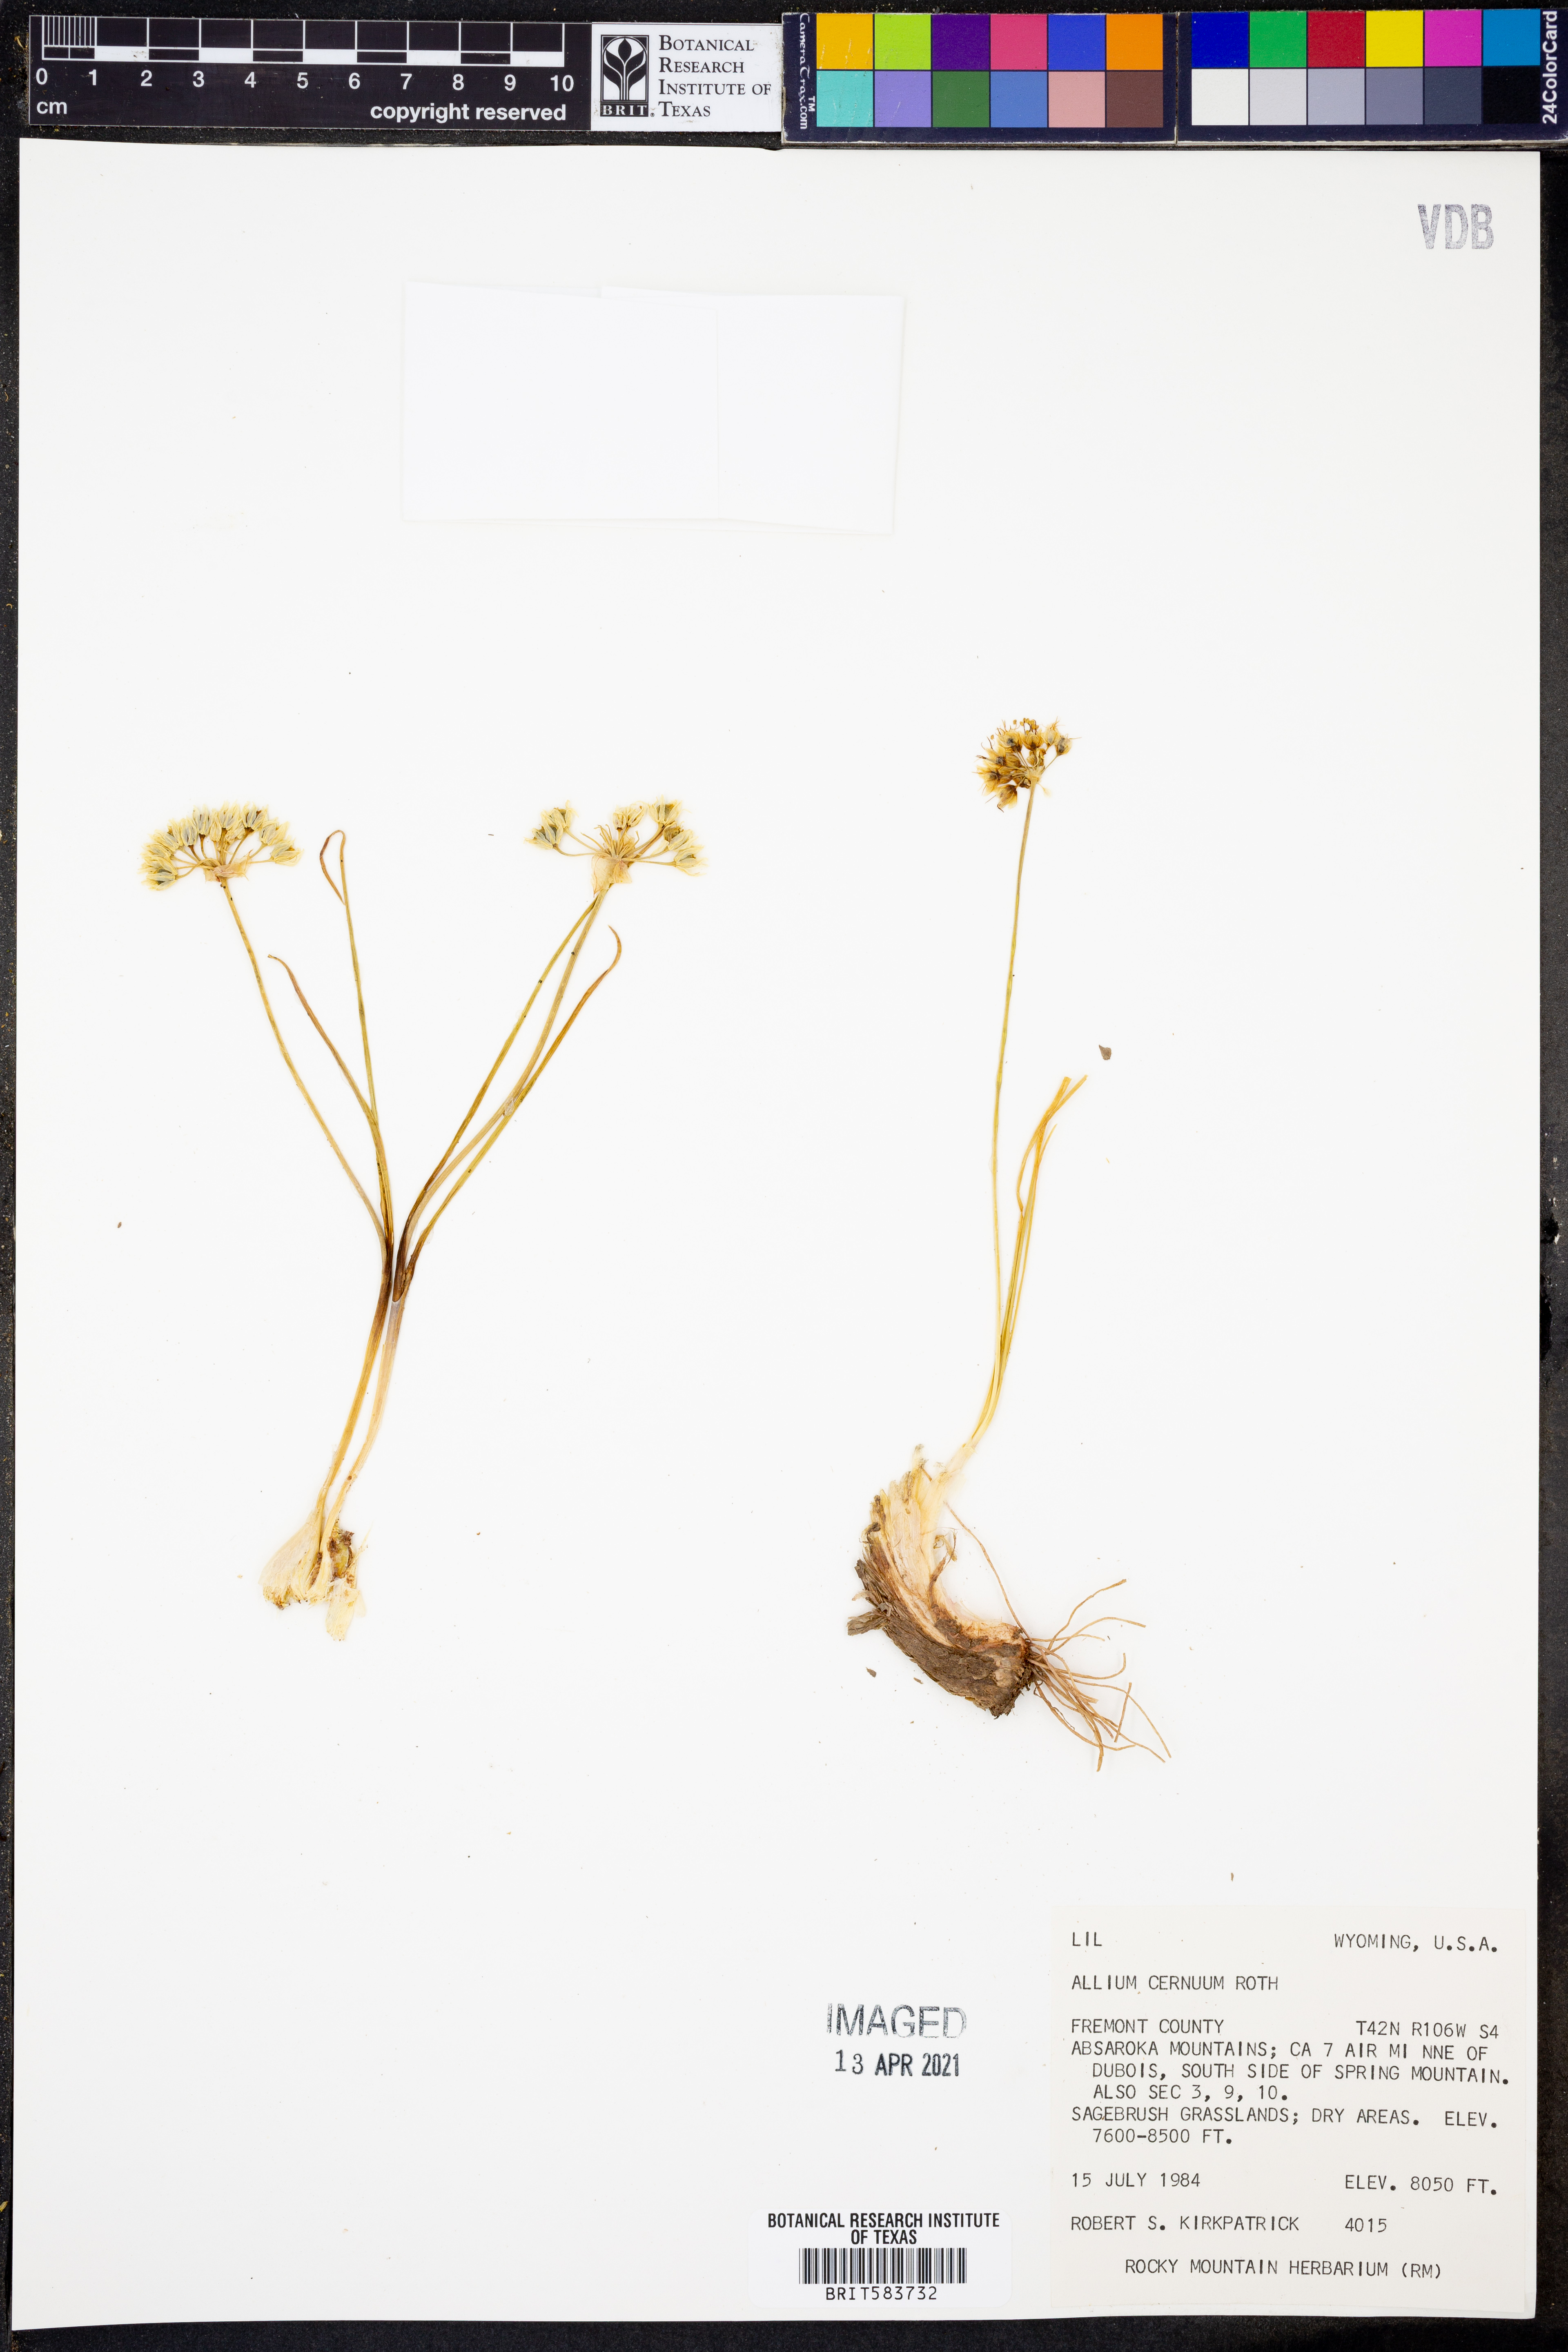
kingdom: Plantae
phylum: Tracheophyta
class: Liliopsida
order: Asparagales
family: Amaryllidaceae
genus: Allium
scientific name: Allium cernuum
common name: Nodding onion
